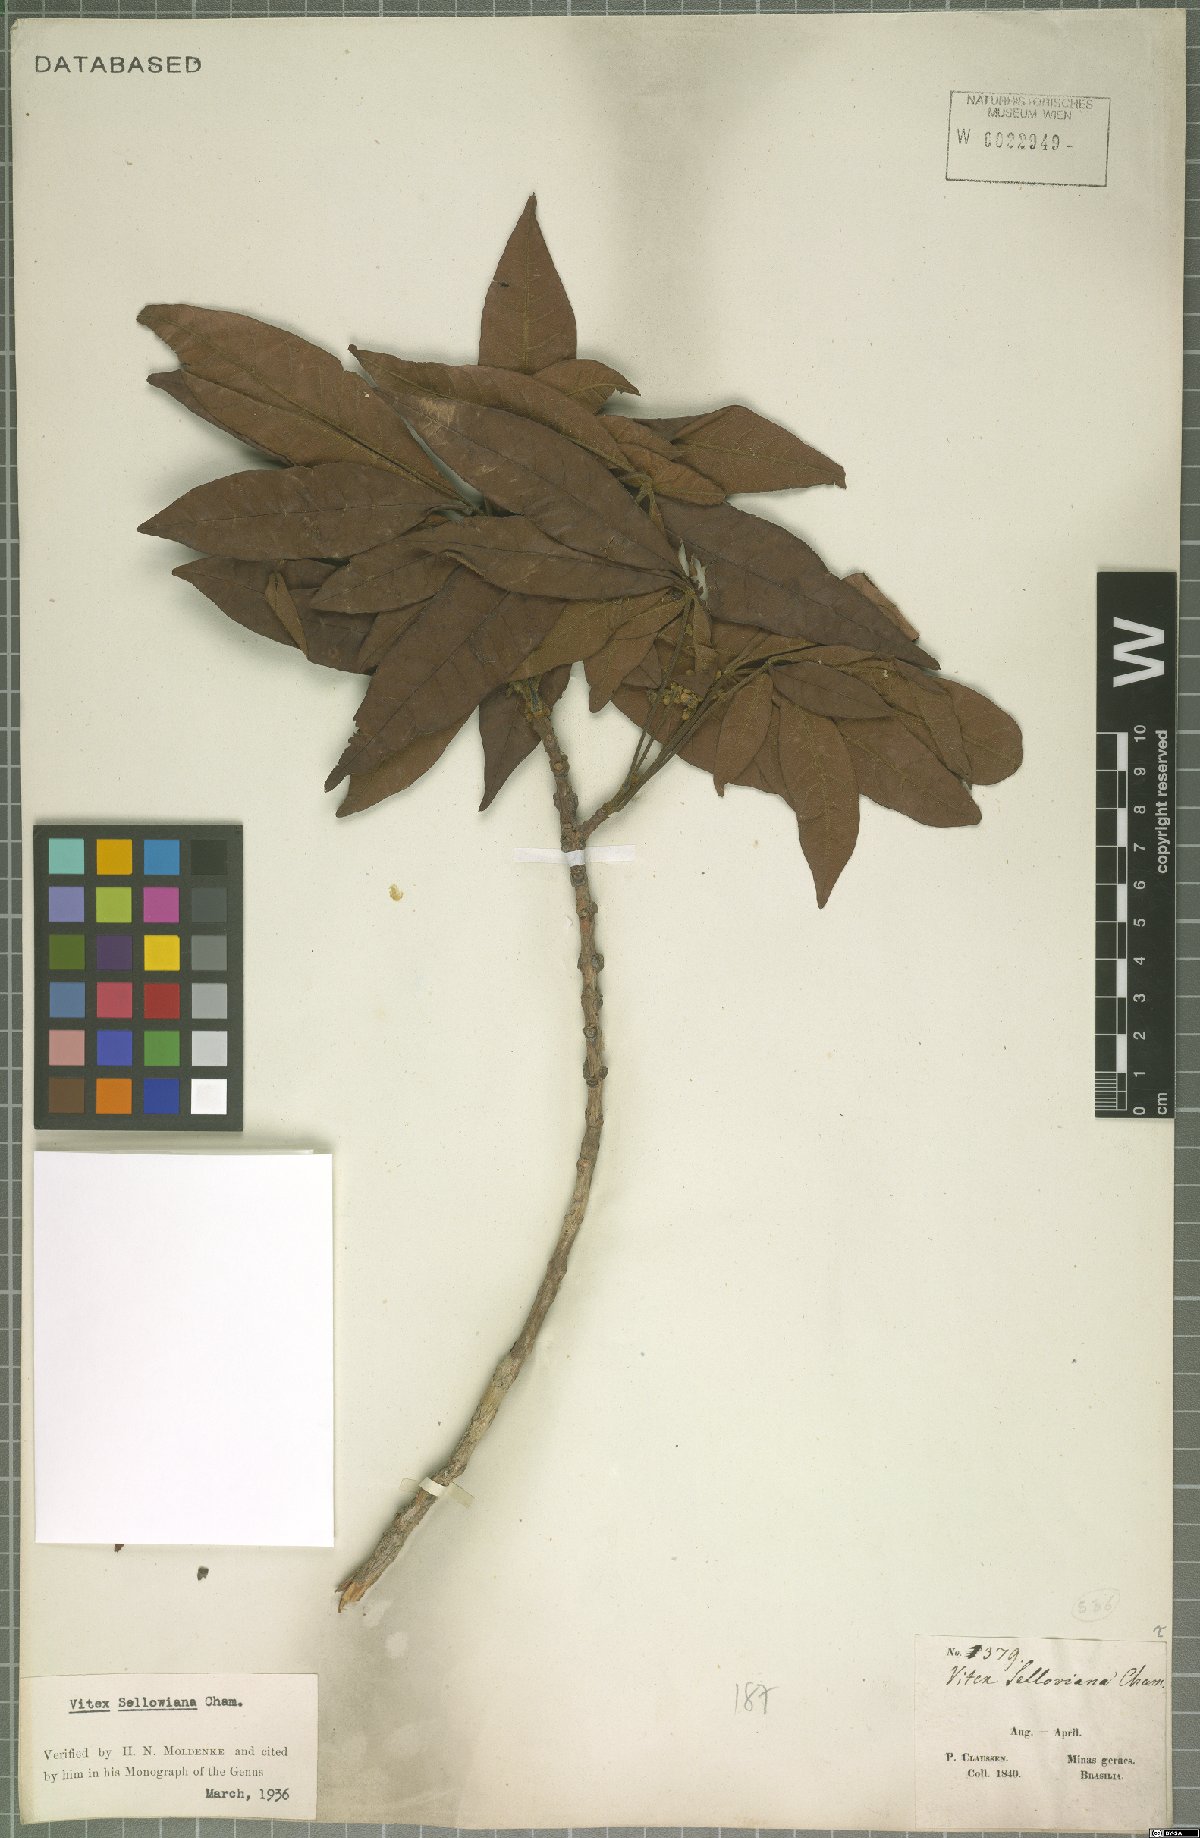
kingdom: Plantae
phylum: Tracheophyta
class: Magnoliopsida
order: Lamiales
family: Lamiaceae
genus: Vitex
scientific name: Vitex sellowiana
